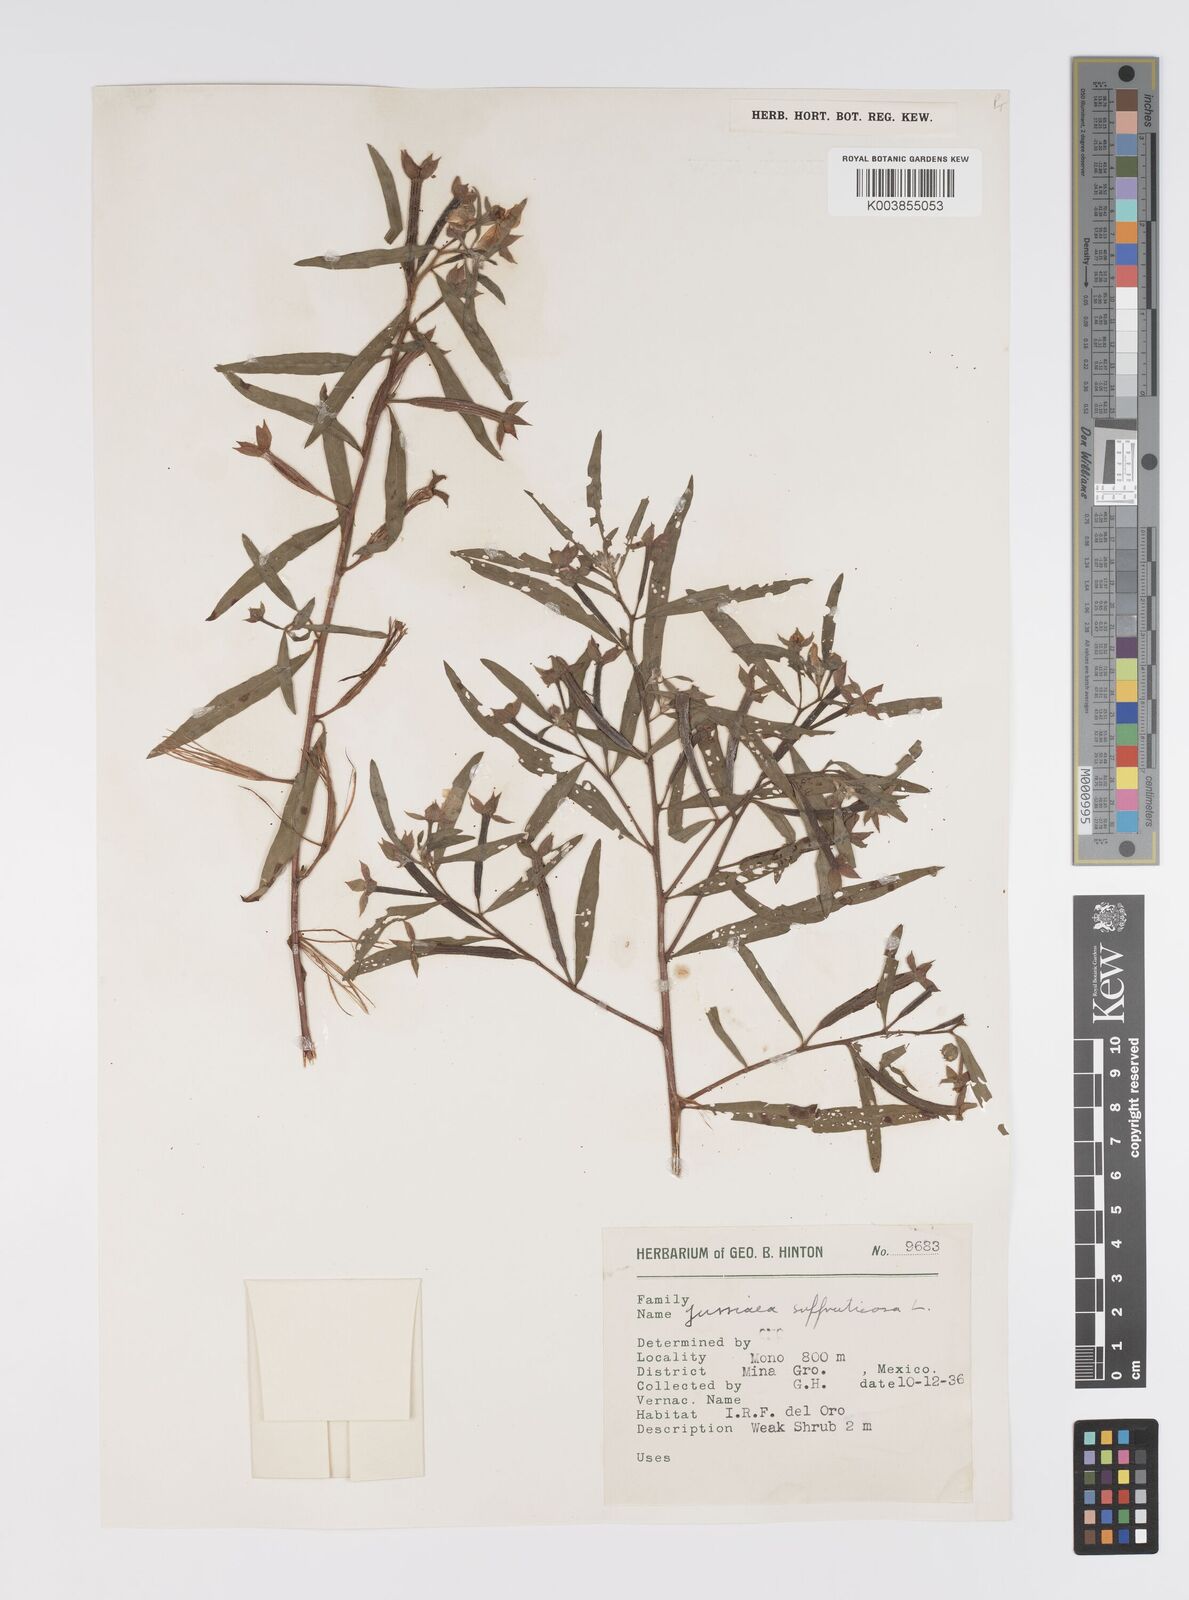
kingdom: Plantae
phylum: Tracheophyta
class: Magnoliopsida
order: Myrtales
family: Onagraceae
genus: Ludwigia
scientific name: Ludwigia octovalvis
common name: Water-primrose
